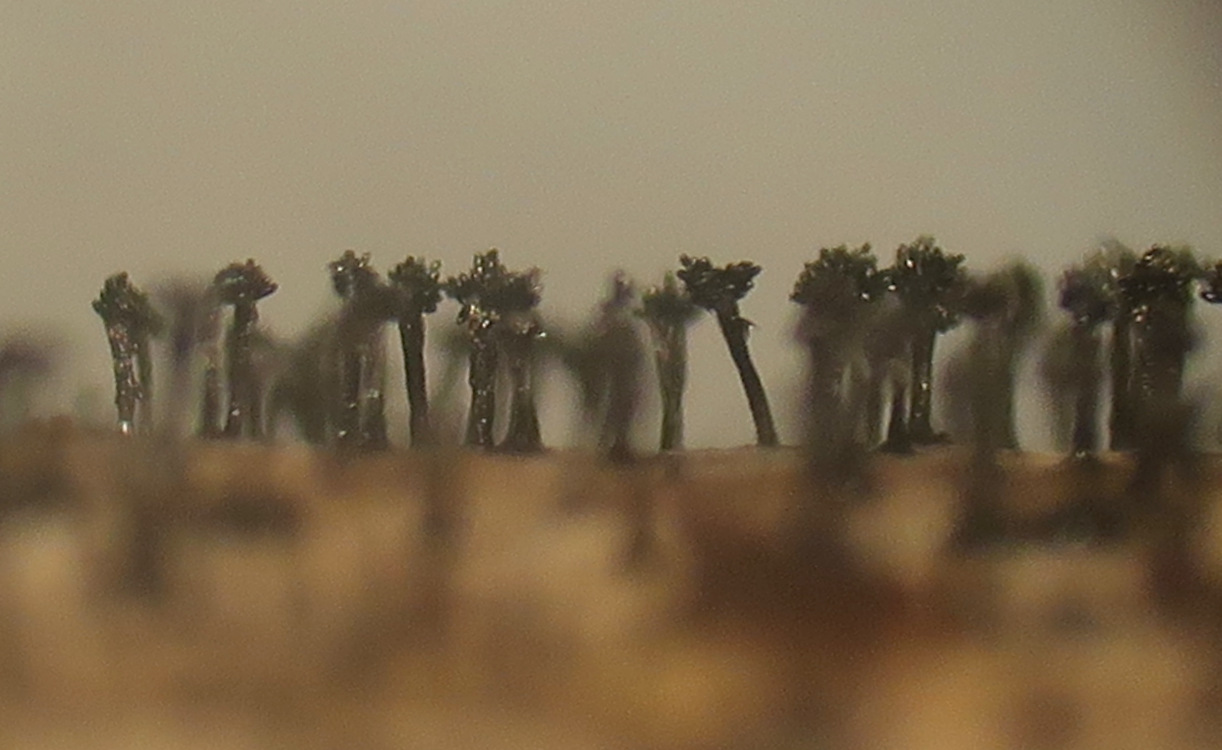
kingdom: Fungi
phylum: Ascomycota
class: Dothideomycetes
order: Pleosporales
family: Melanommataceae
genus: Phragmocephala
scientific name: Phragmocephala atra
